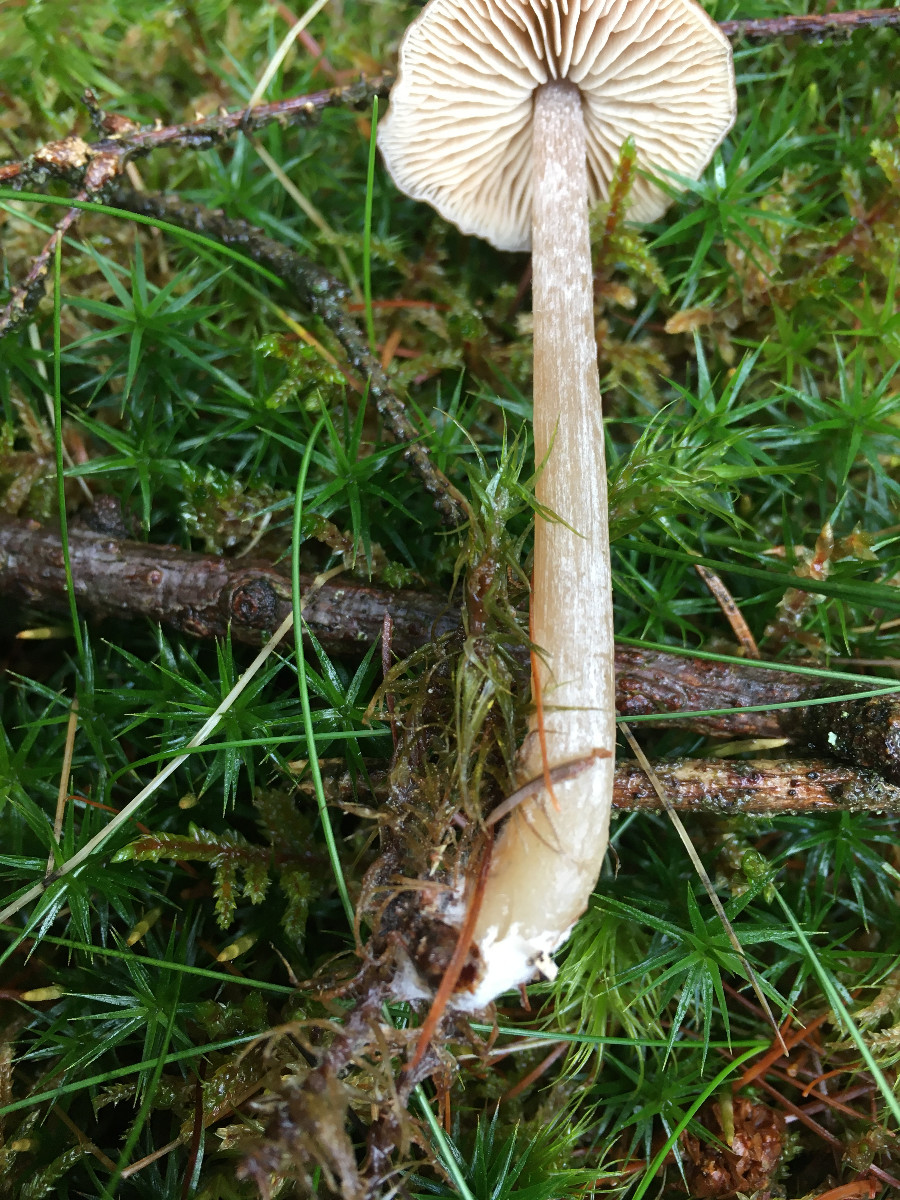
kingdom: Fungi
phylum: Basidiomycota
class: Agaricomycetes
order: Agaricales
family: Entolomataceae
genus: Entoloma
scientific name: Entoloma cetratum
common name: voks-rødblad
